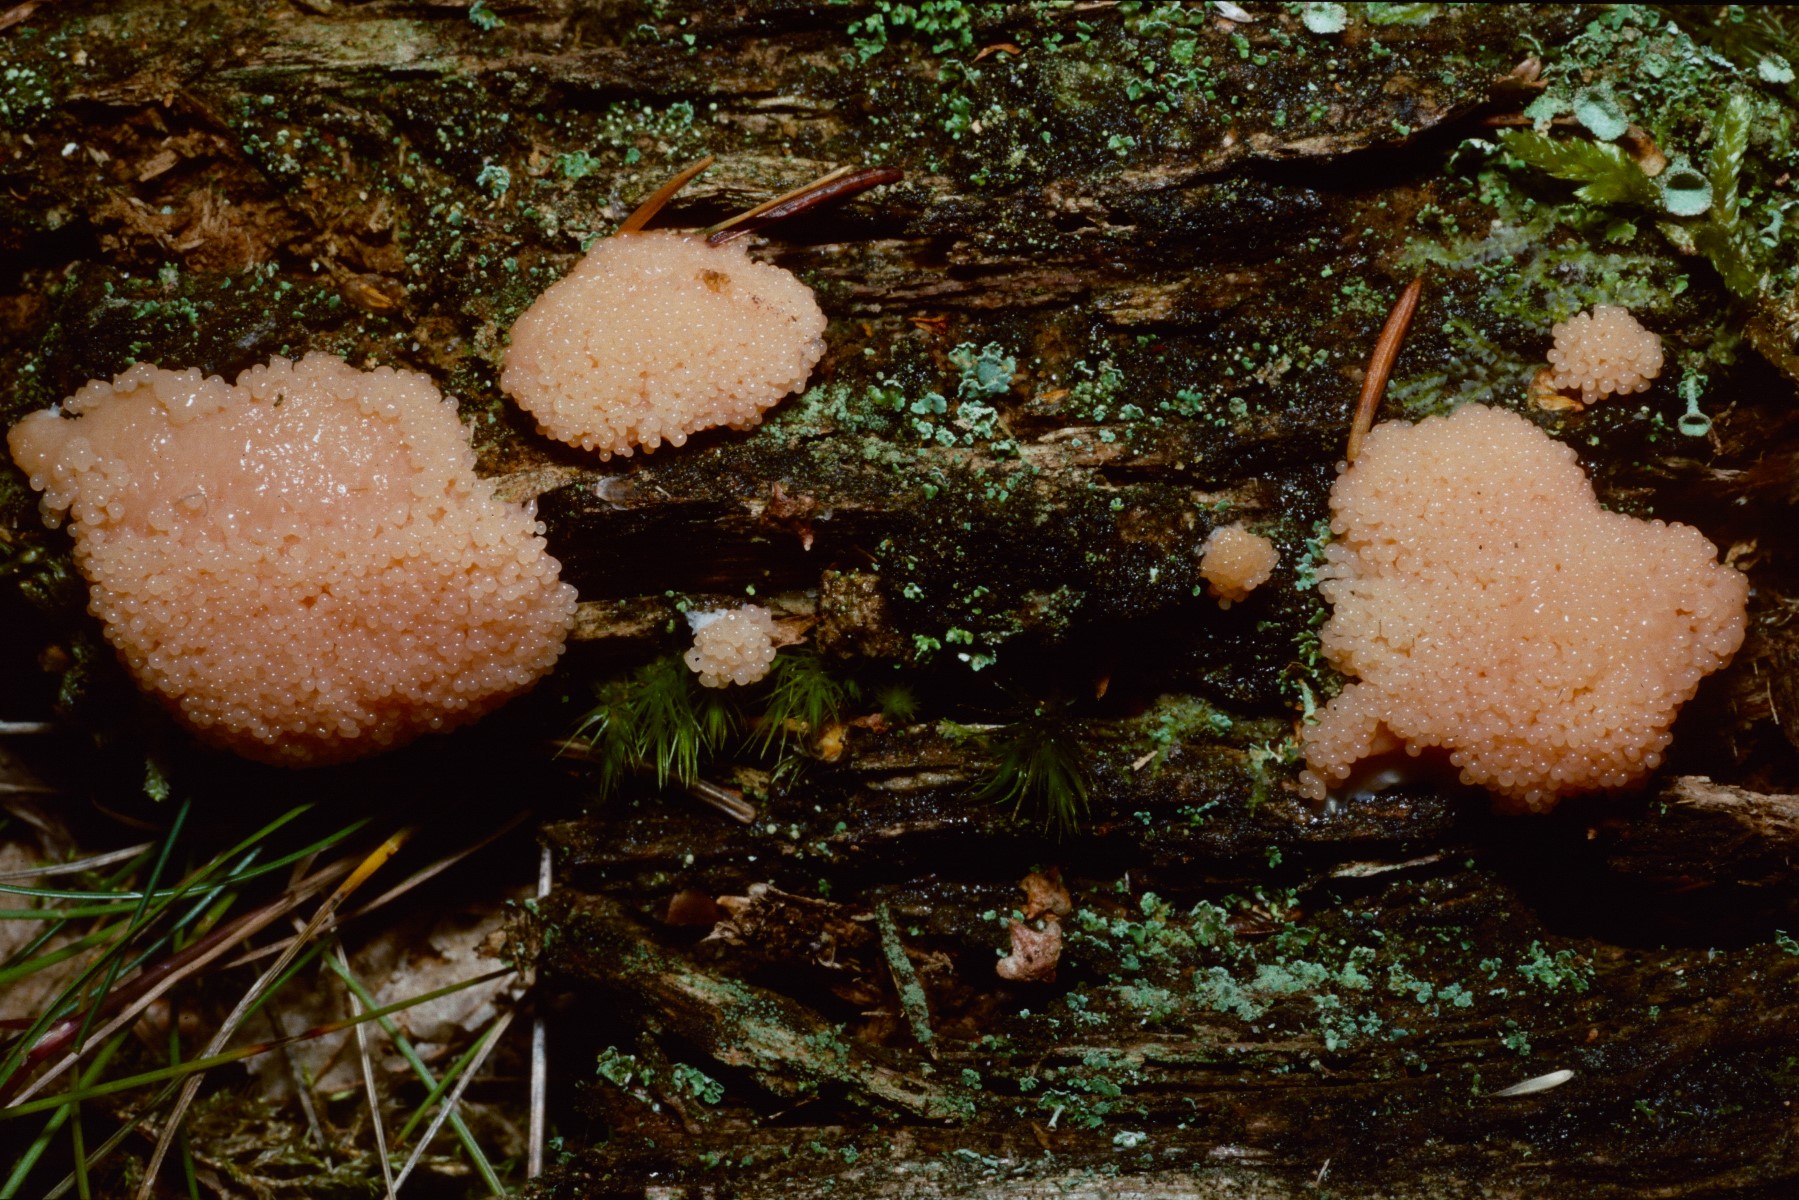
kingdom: Protozoa
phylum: Mycetozoa
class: Myxomycetes
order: Cribrariales
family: Tubiferaceae
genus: Tubifera
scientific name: Tubifera ferruginosa
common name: kanel-støvrør
